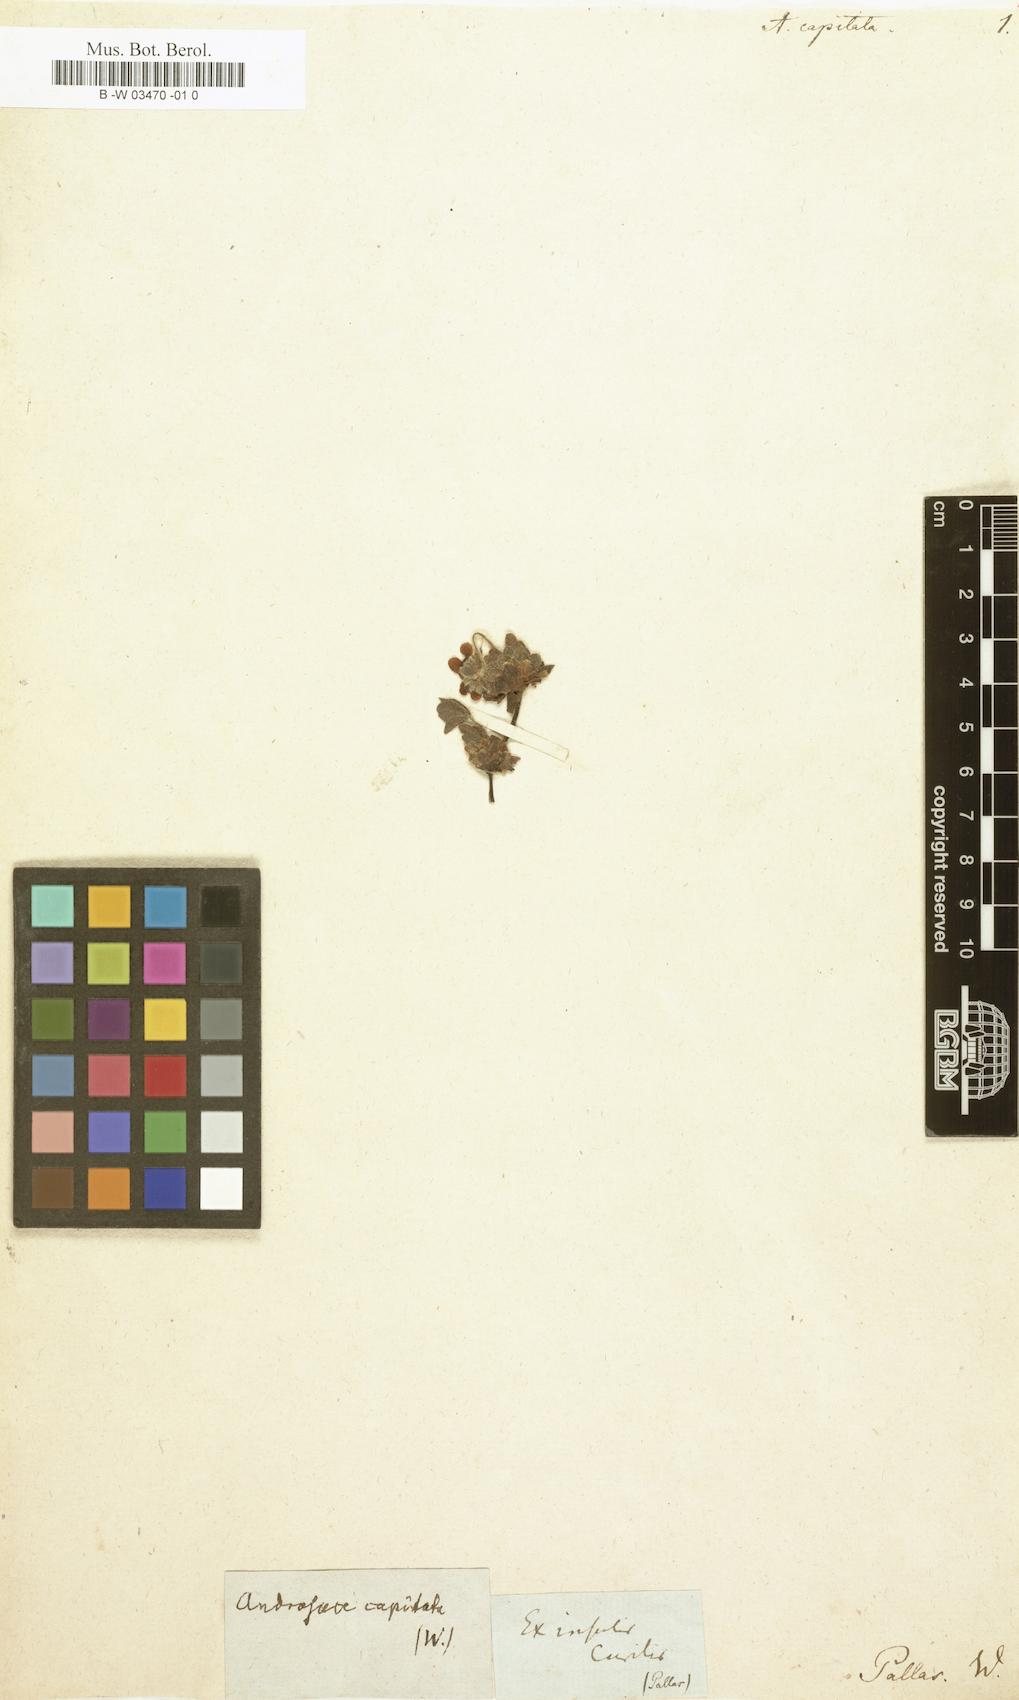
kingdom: Plantae
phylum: Tracheophyta
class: Magnoliopsida
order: Ericales
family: Primulaceae
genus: Androsace
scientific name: Androsace chamaejasme
